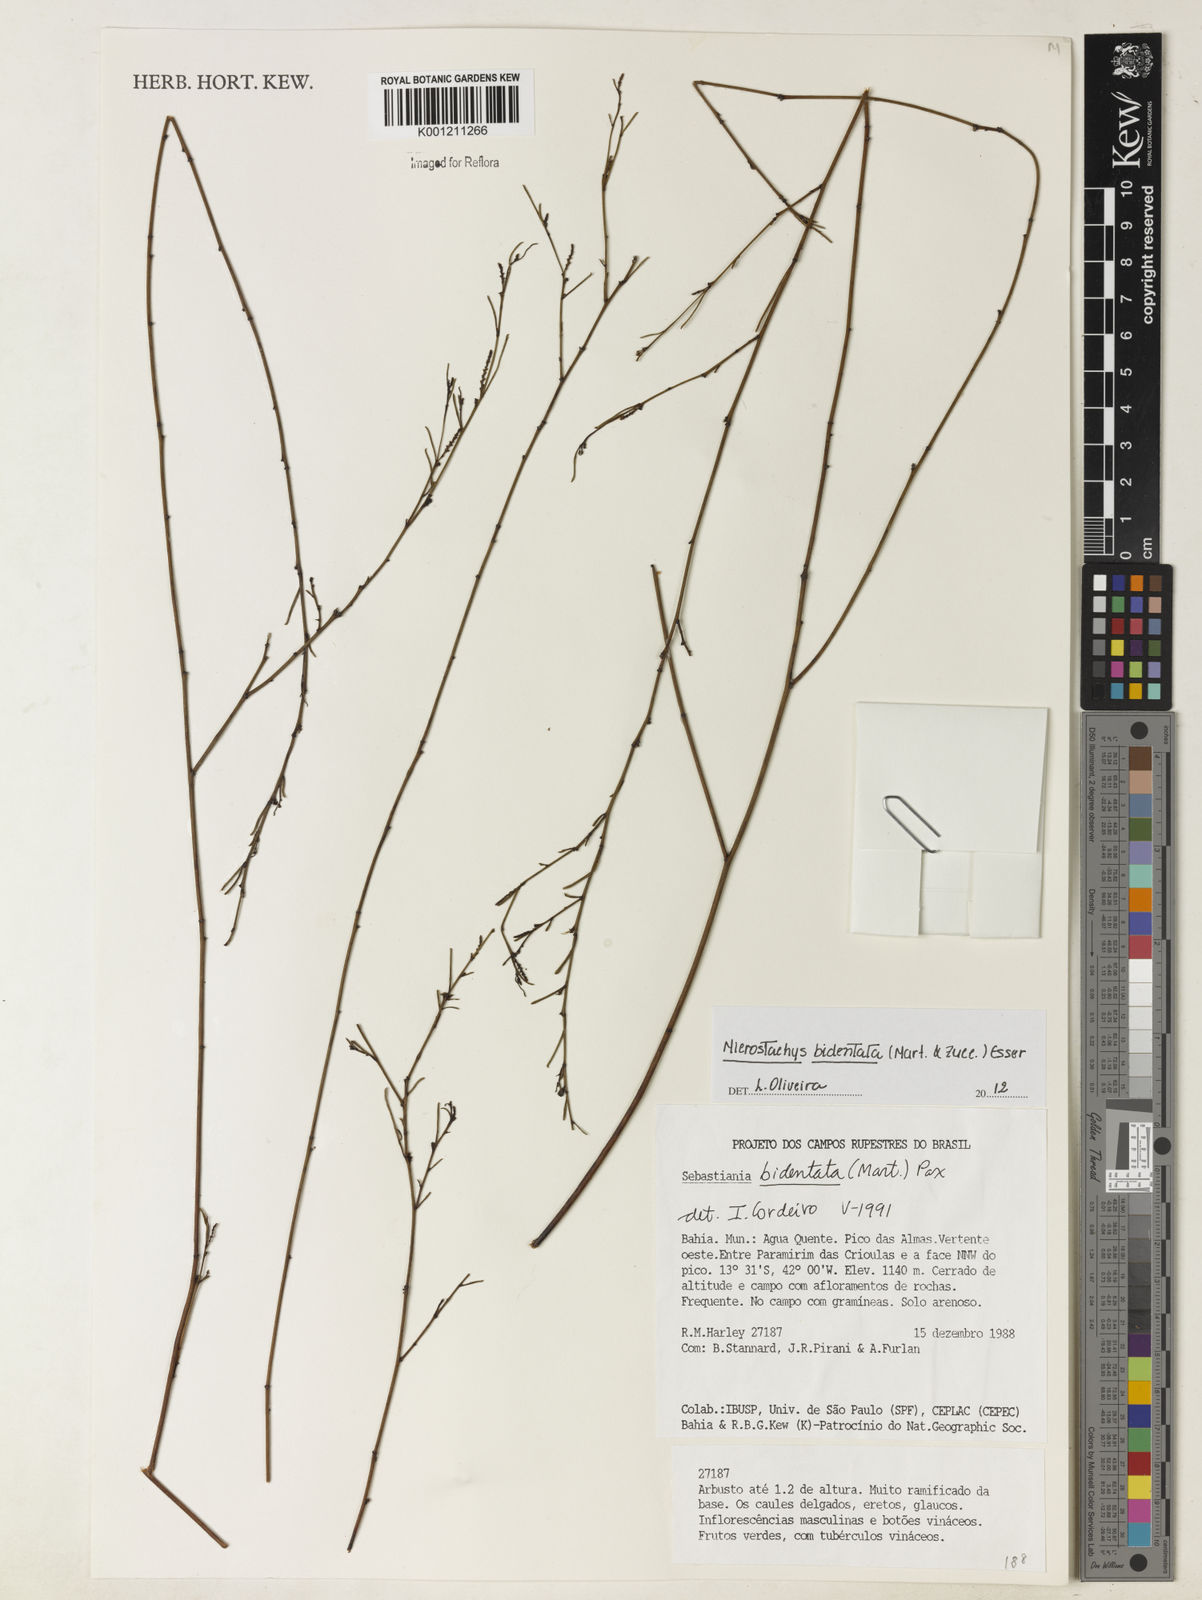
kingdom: Plantae
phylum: Tracheophyta
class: Magnoliopsida
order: Malpighiales
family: Euphorbiaceae
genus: Microstachys
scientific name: Microstachys bidentata
